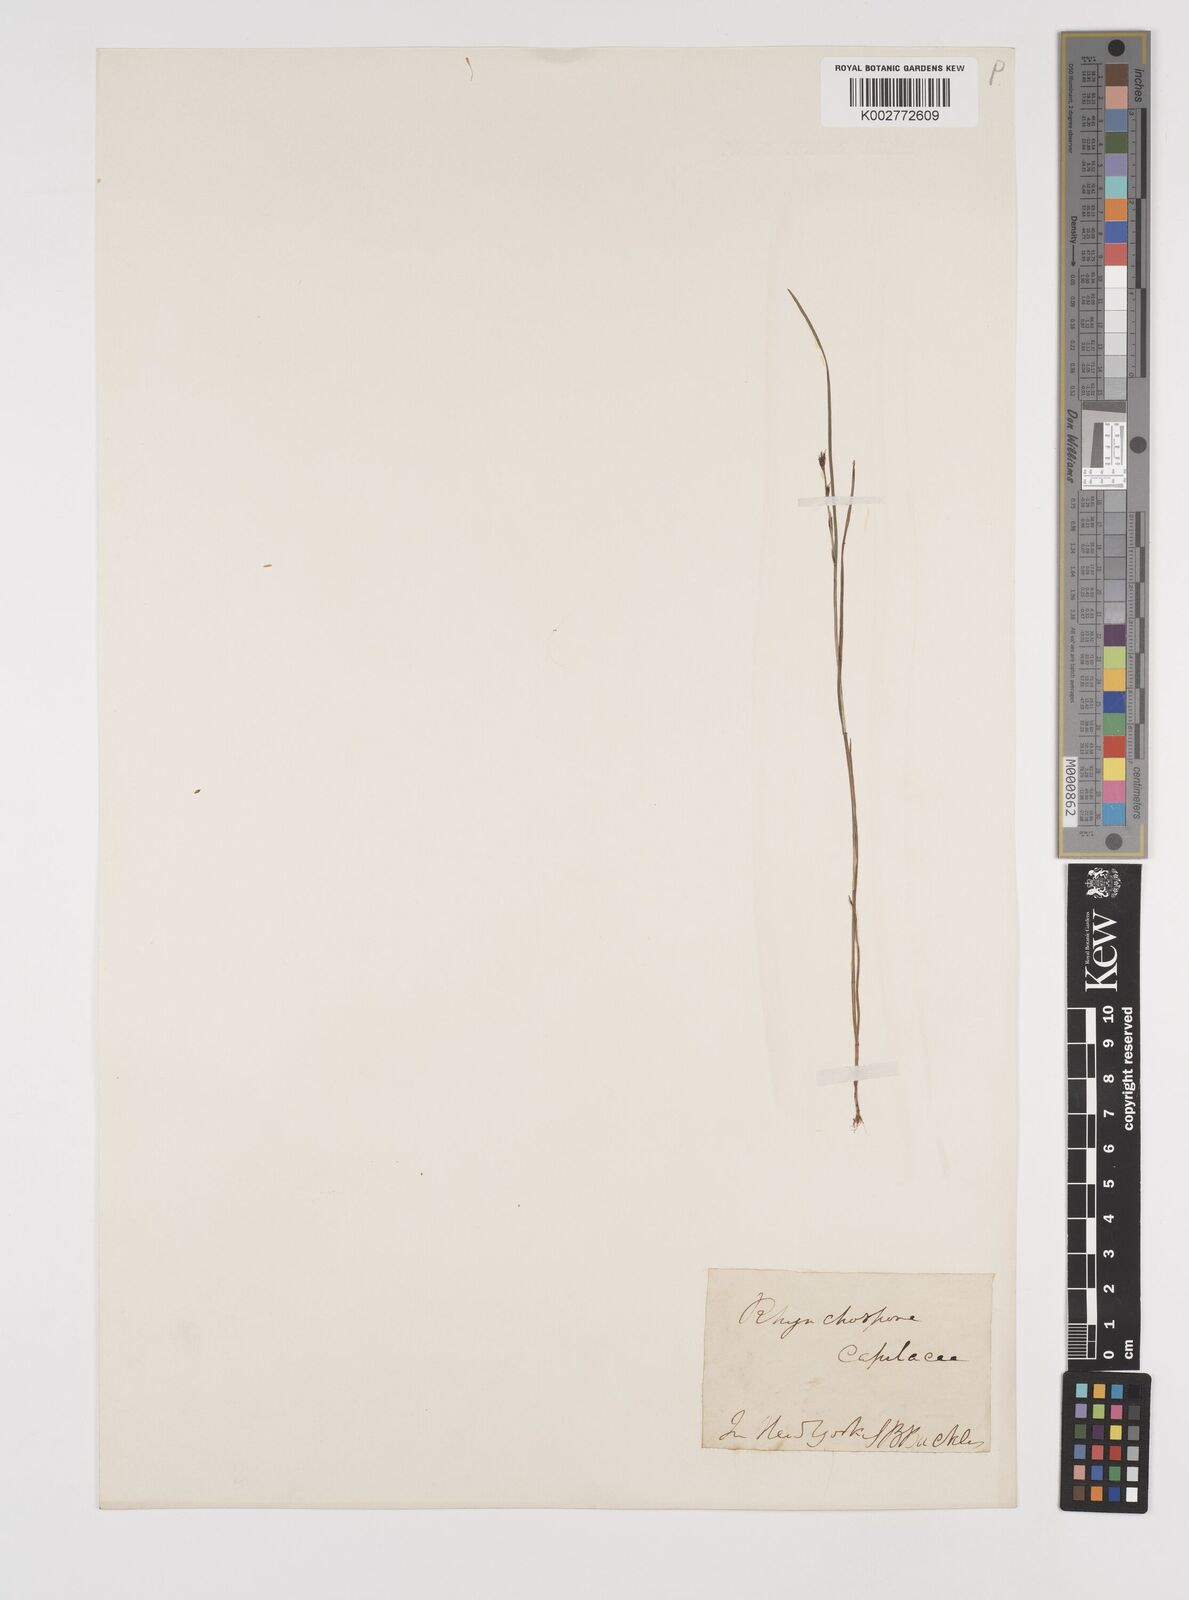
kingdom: Plantae
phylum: Tracheophyta
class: Liliopsida
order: Poales
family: Cyperaceae
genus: Rhynchospora
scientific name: Rhynchospora capillacea
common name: Capillary beakrush
